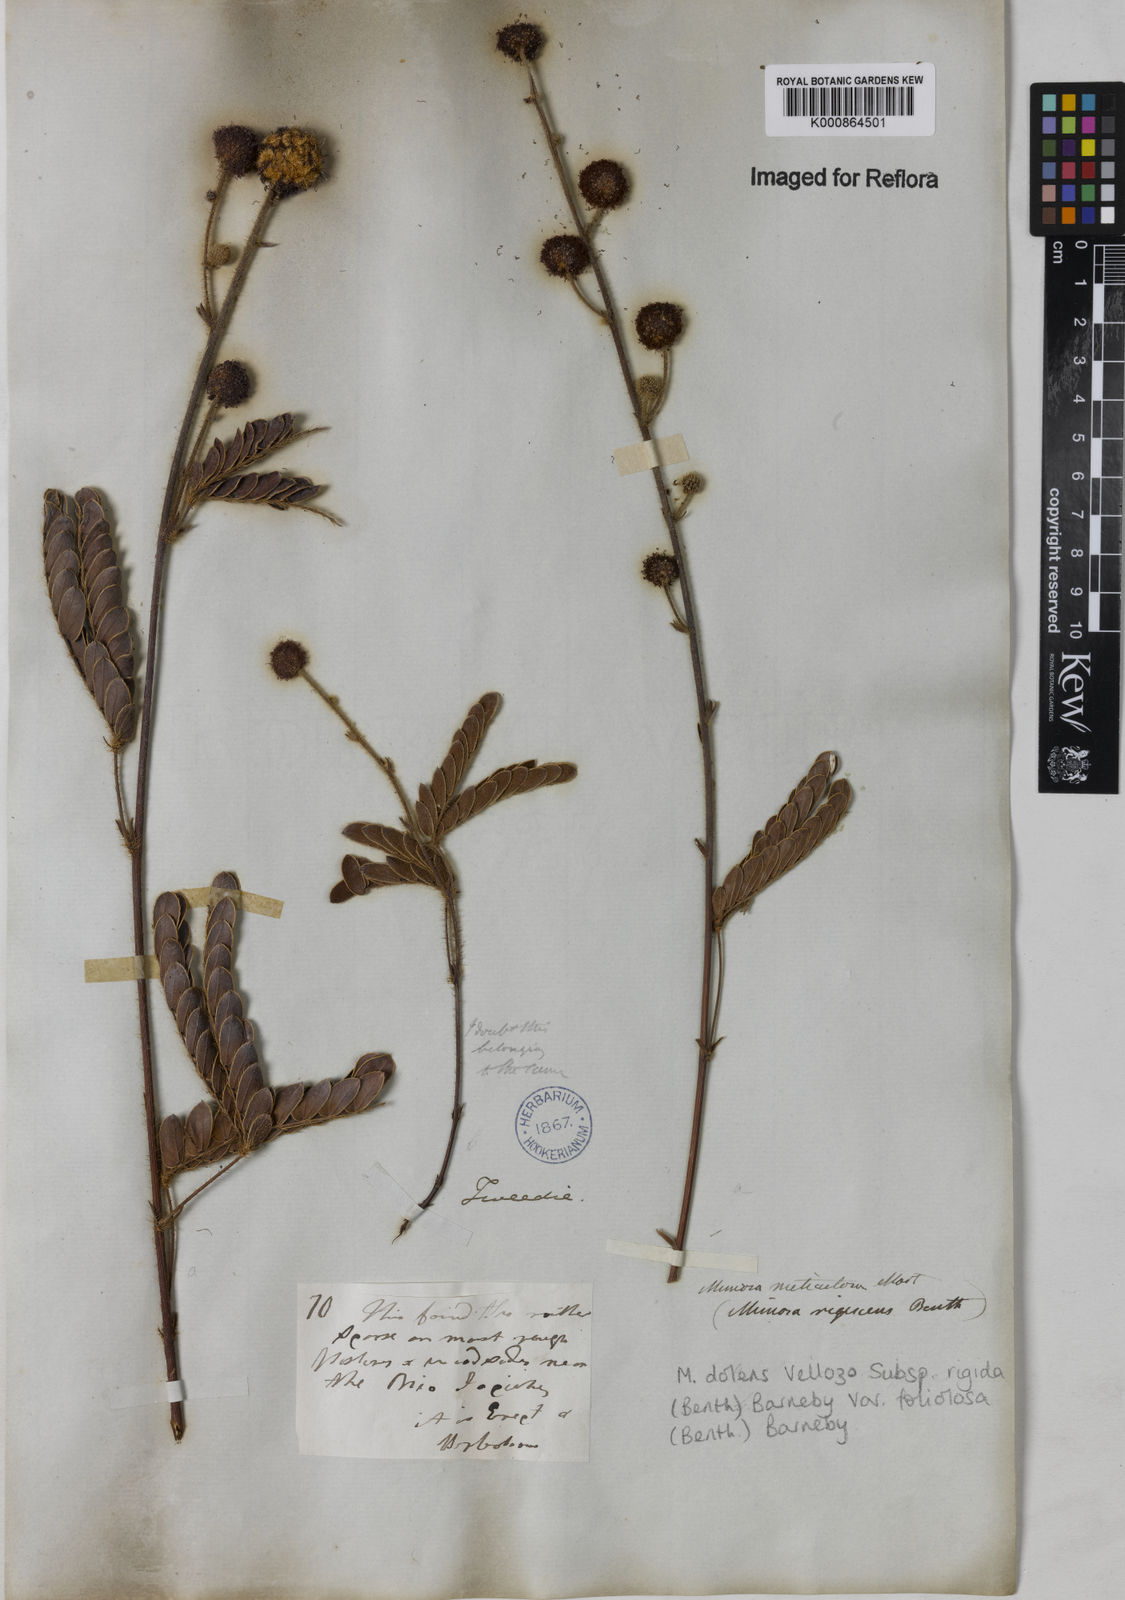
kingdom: Plantae
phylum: Tracheophyta
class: Magnoliopsida
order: Fabales
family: Fabaceae
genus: Mimosa
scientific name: Mimosa dolens
